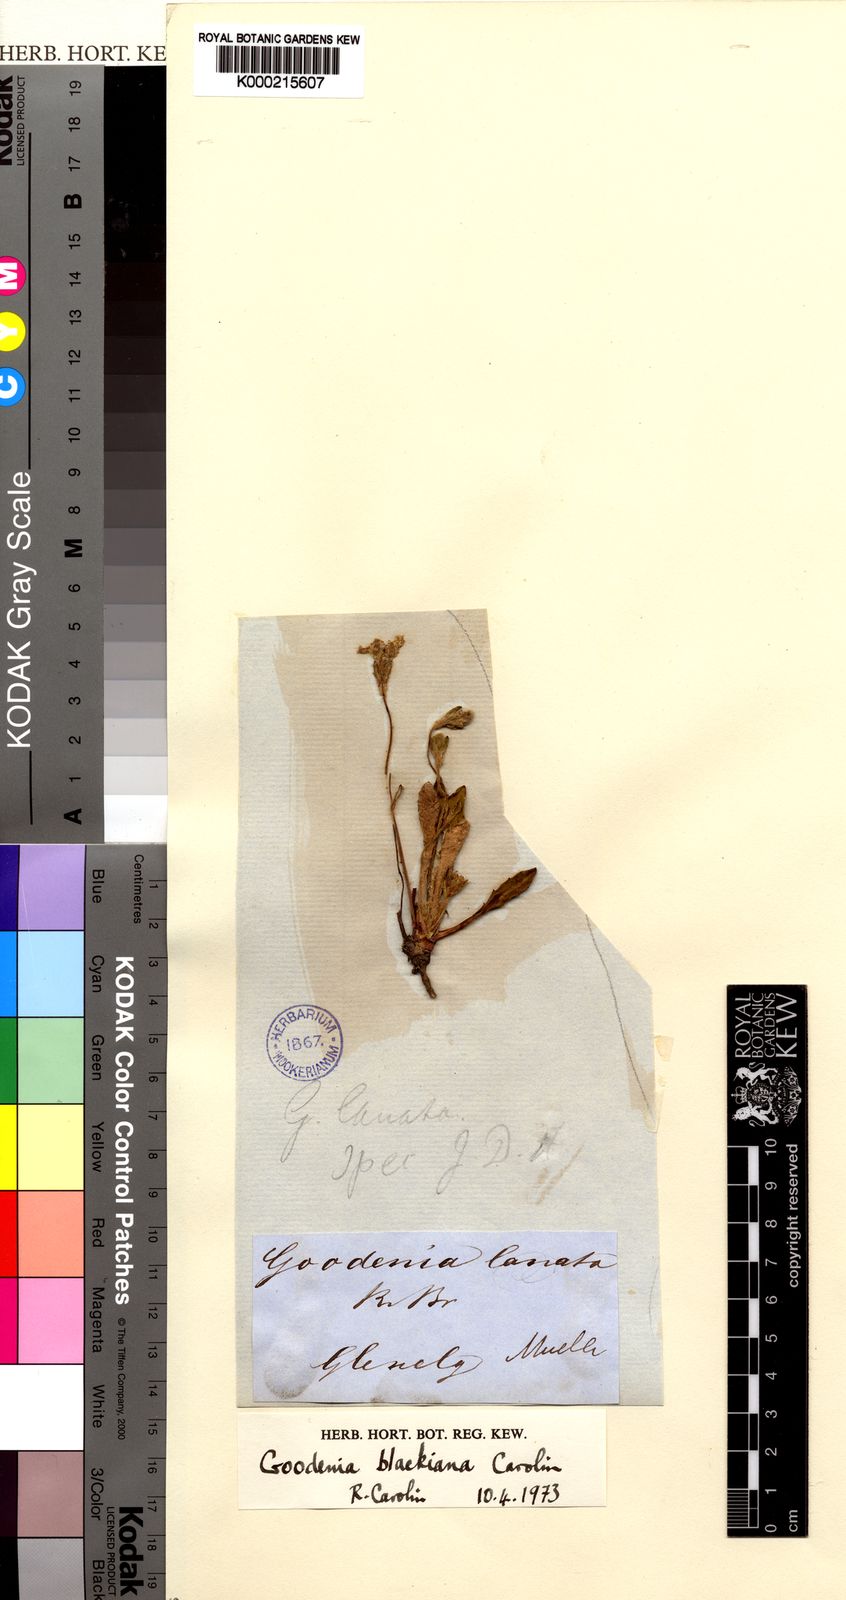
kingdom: Plantae
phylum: Tracheophyta
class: Magnoliopsida
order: Asterales
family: Goodeniaceae
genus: Goodenia
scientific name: Goodenia blackiana
